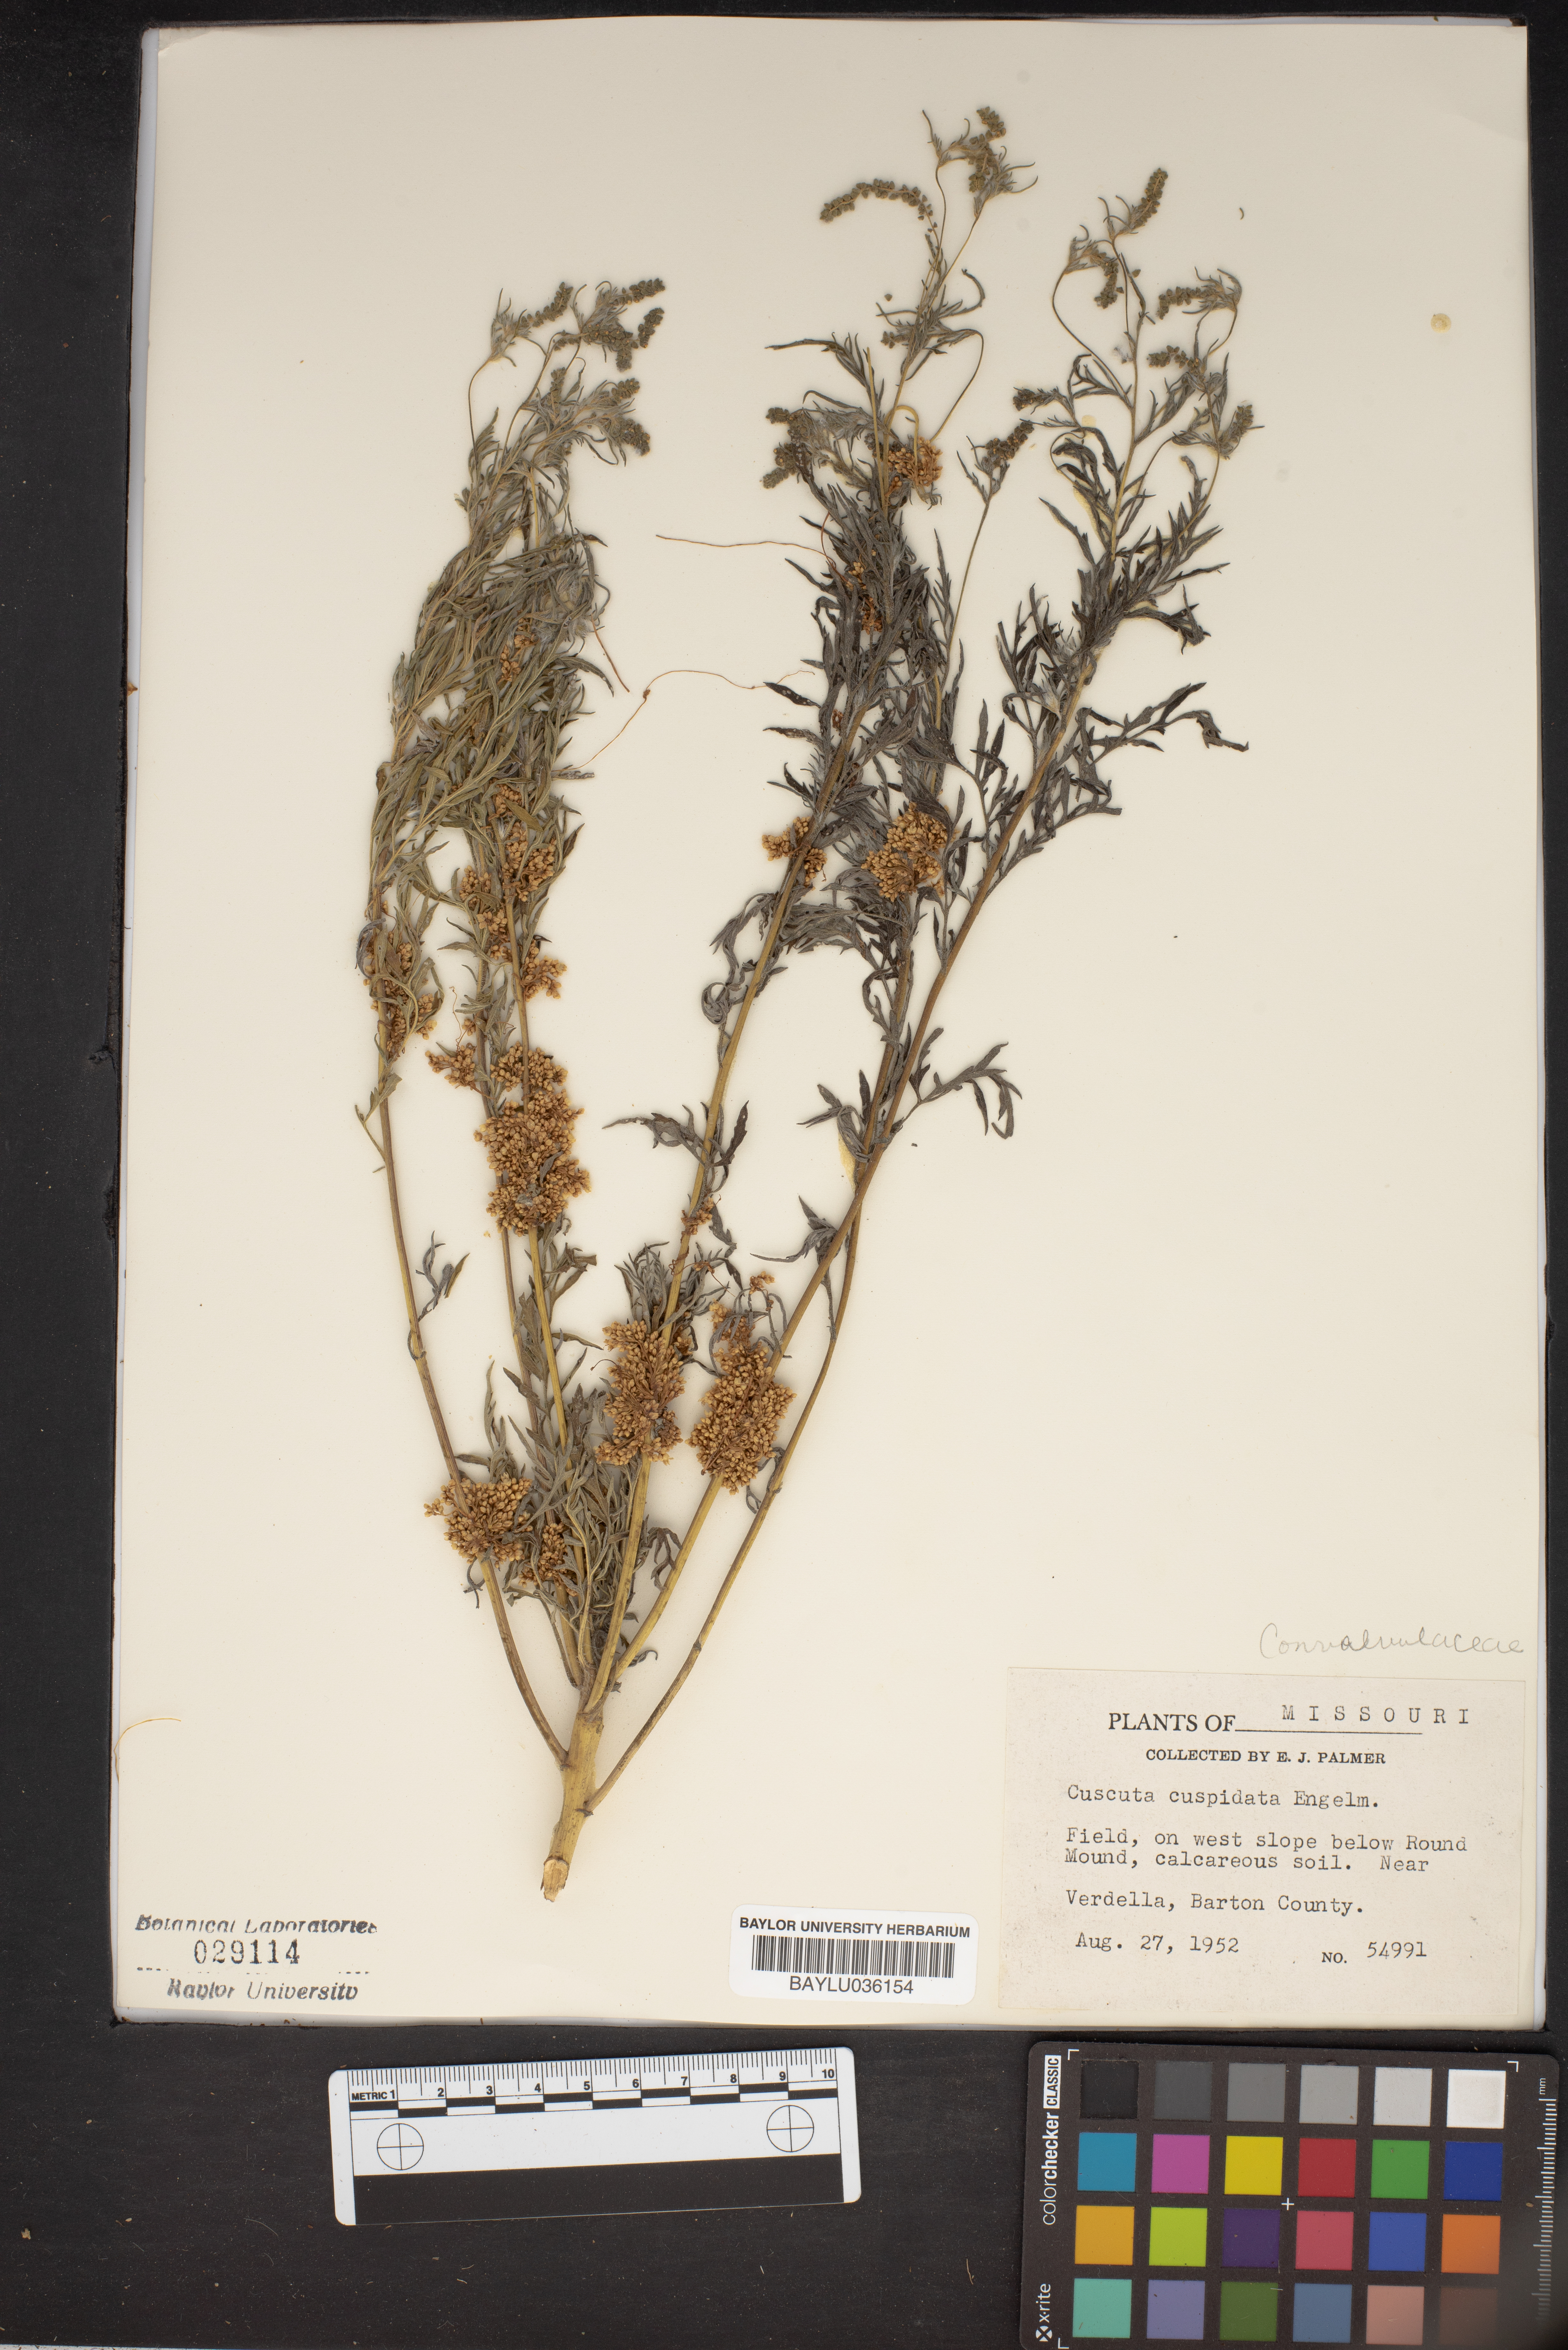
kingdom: Plantae
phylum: Tracheophyta
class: Magnoliopsida
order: Solanales
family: Convolvulaceae
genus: Cuscuta
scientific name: Cuscuta cuspidata
